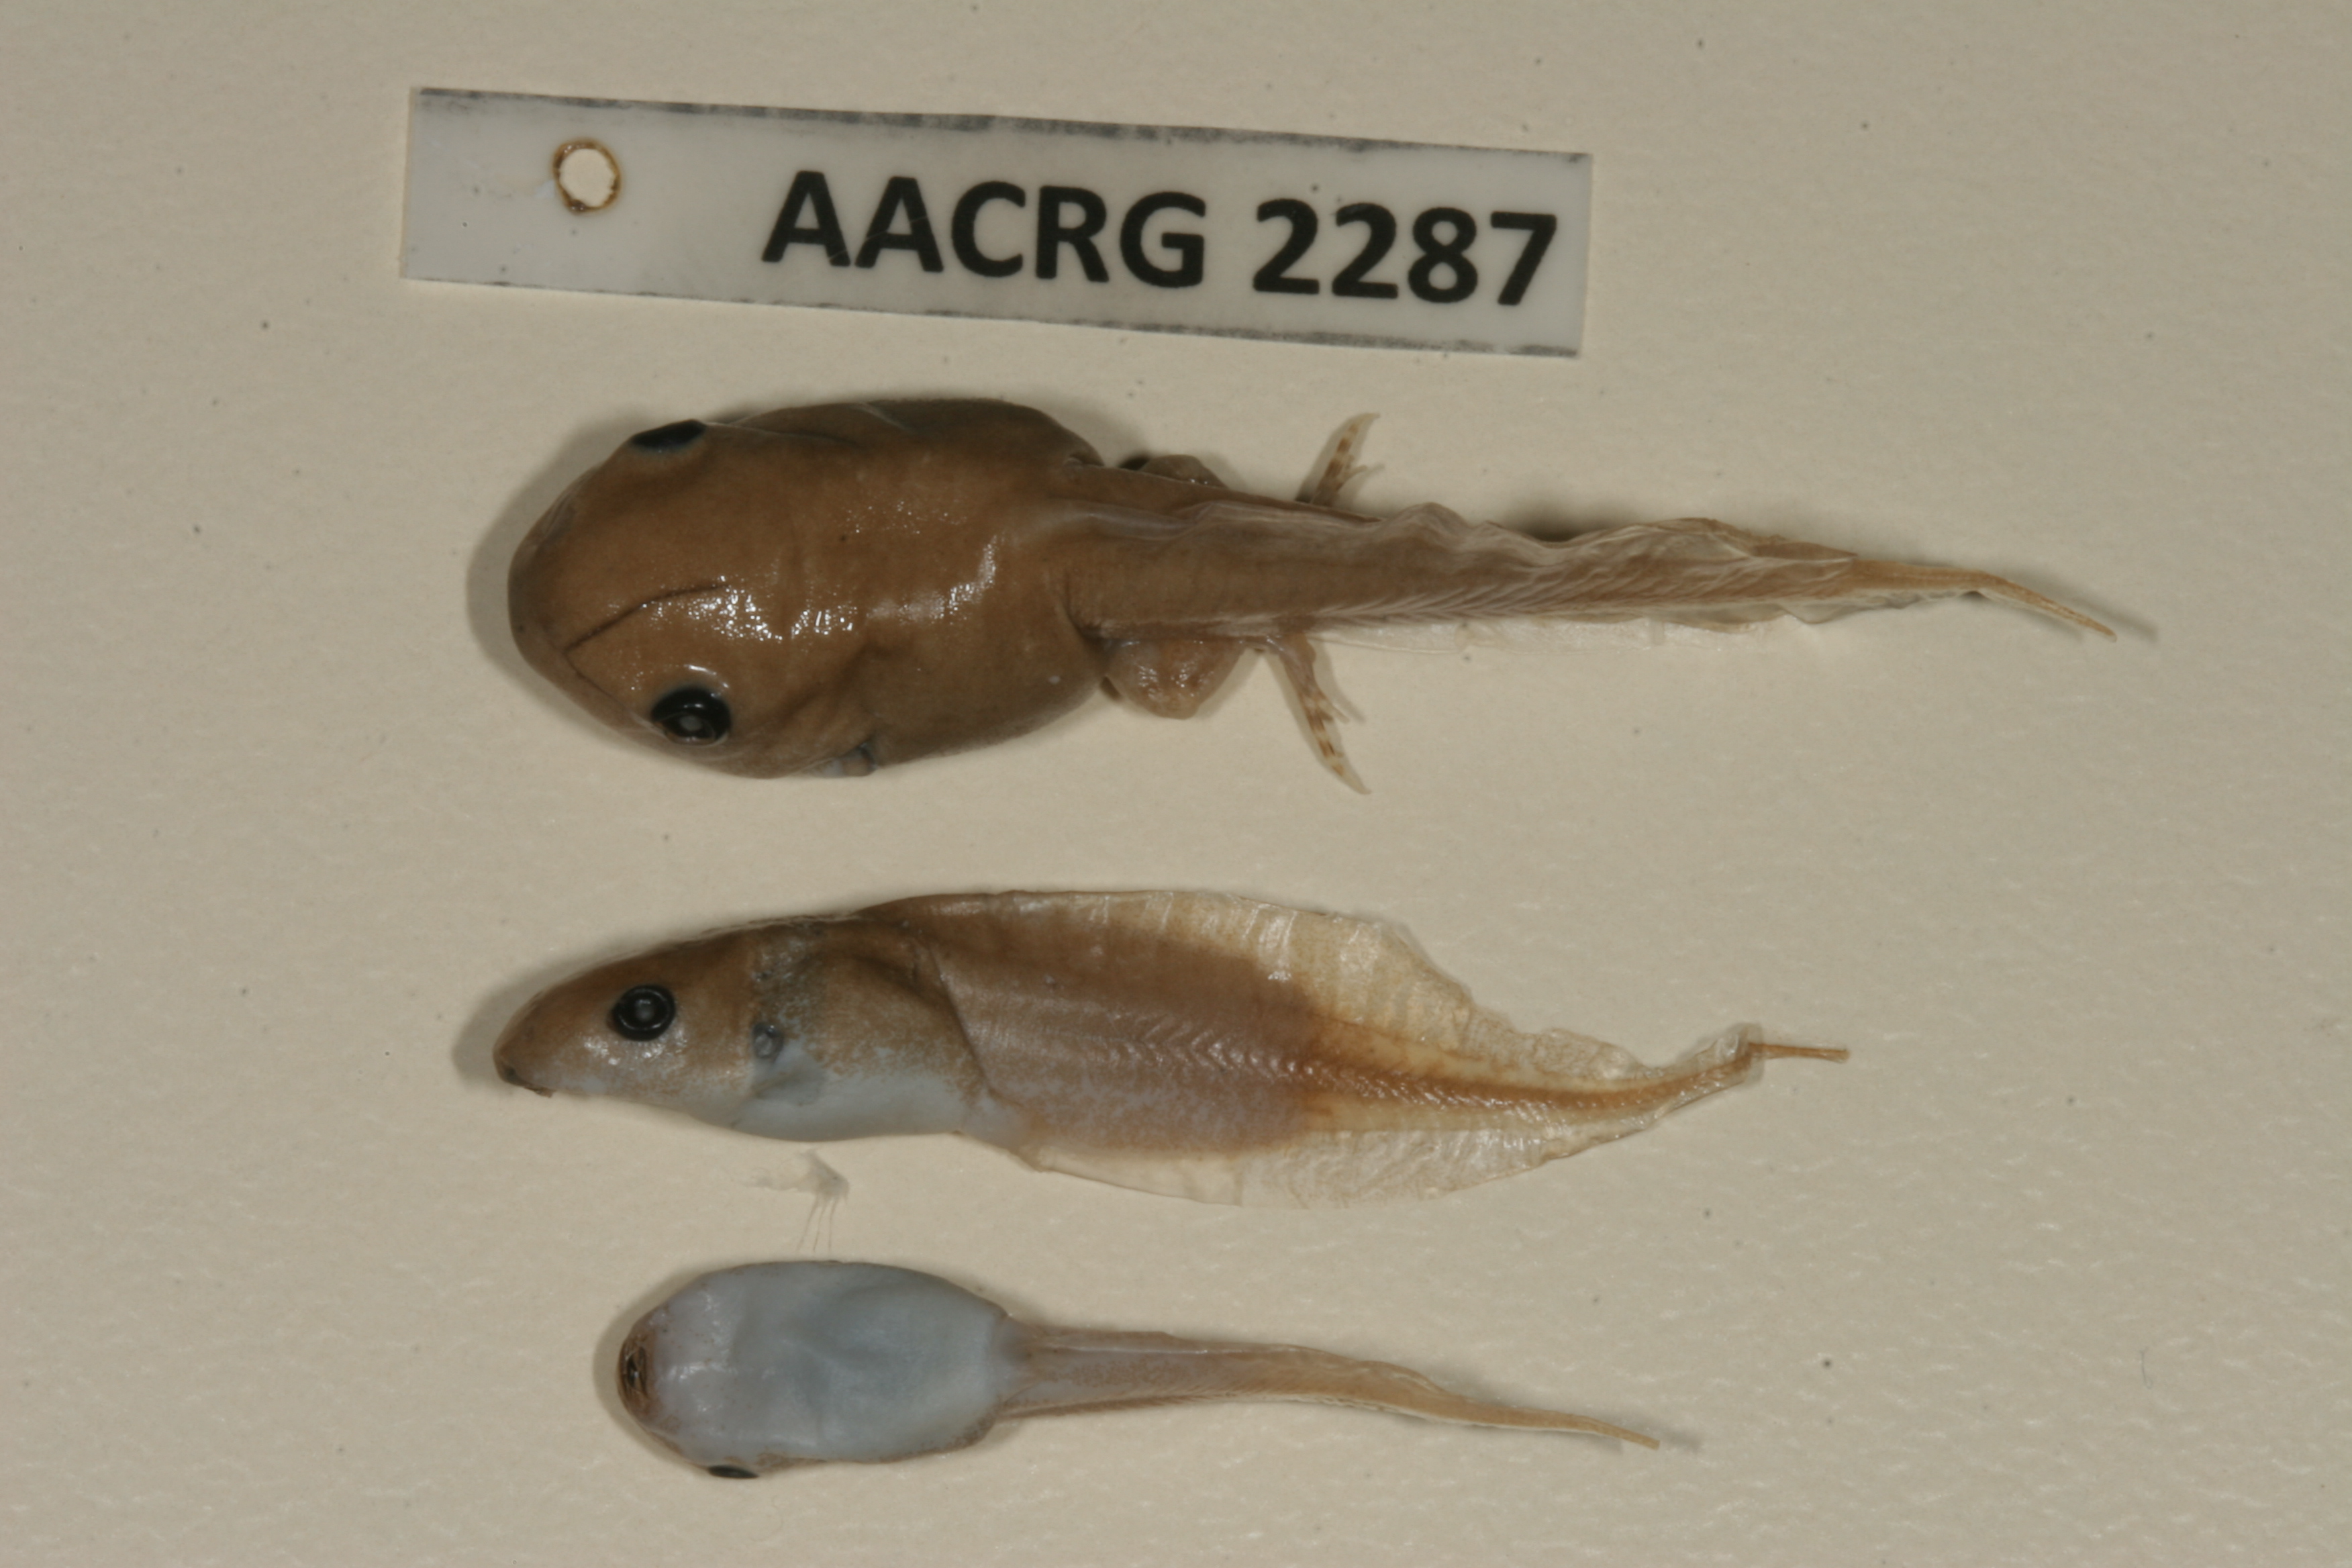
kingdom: Animalia
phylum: Chordata
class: Amphibia
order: Anura
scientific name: Anura
